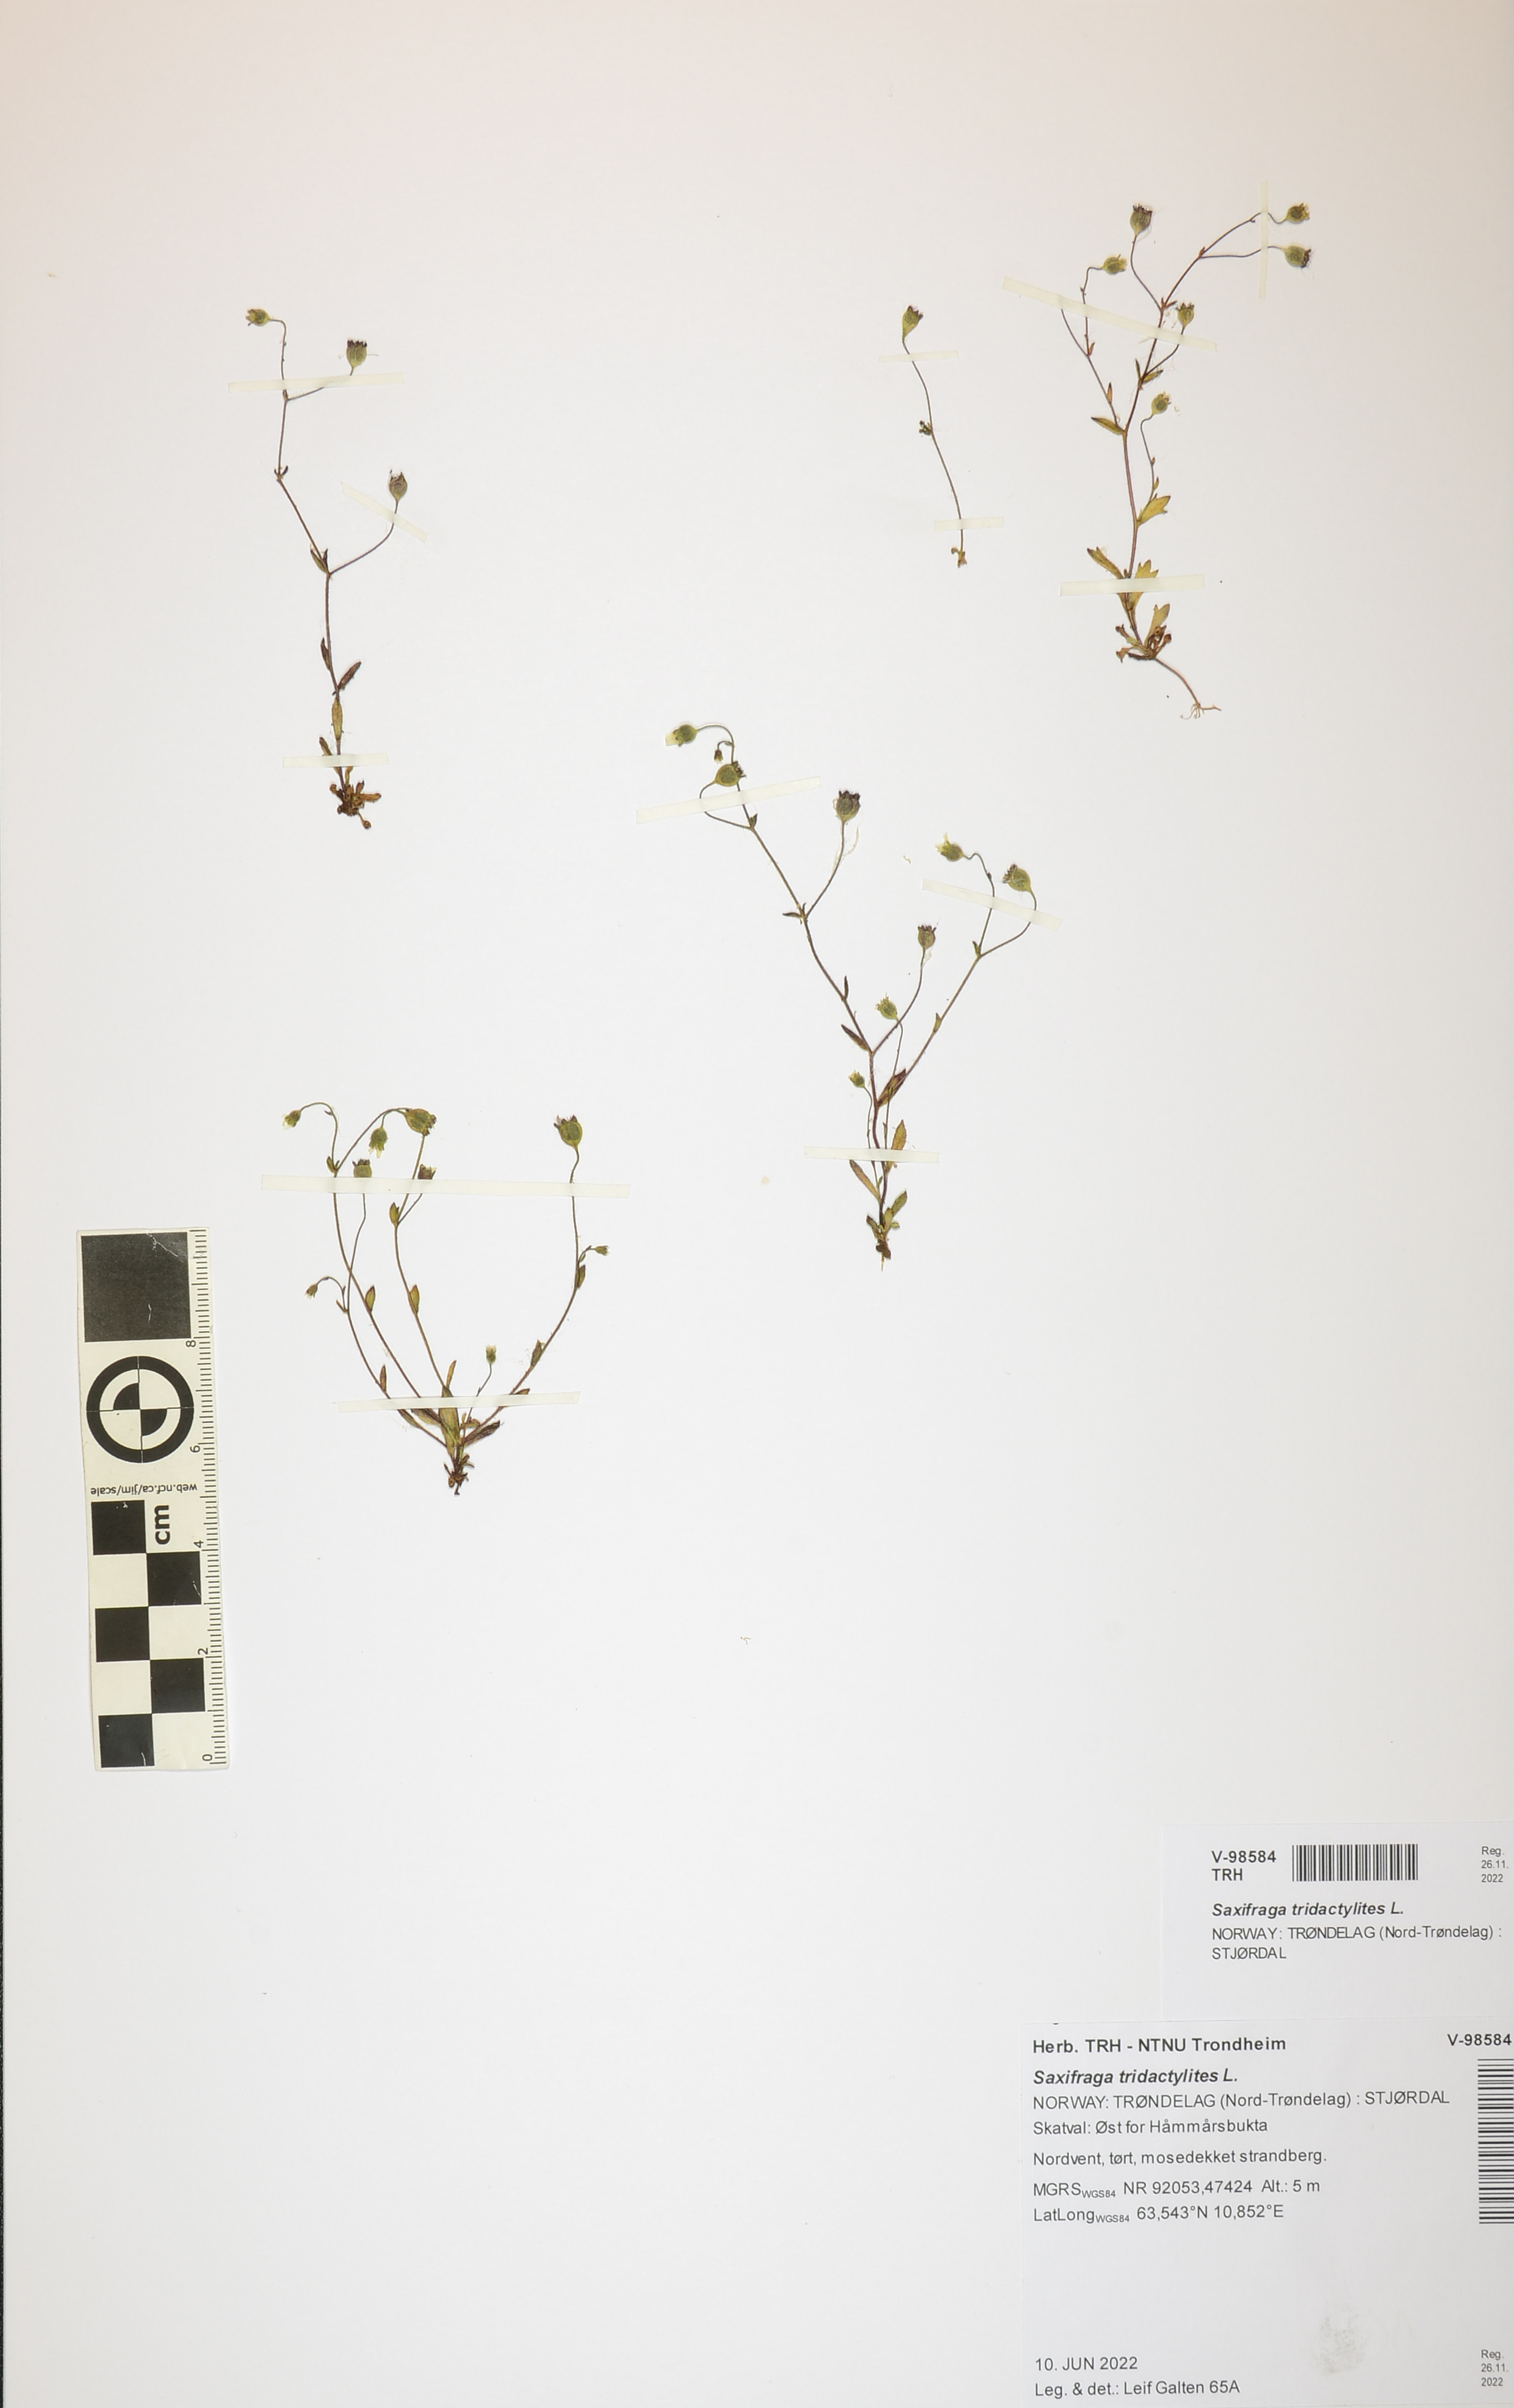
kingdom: Plantae
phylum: Tracheophyta
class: Magnoliopsida
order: Saxifragales
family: Saxifragaceae
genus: Saxifraga
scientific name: Saxifraga tridactylites
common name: Rue-leaved saxifrage
